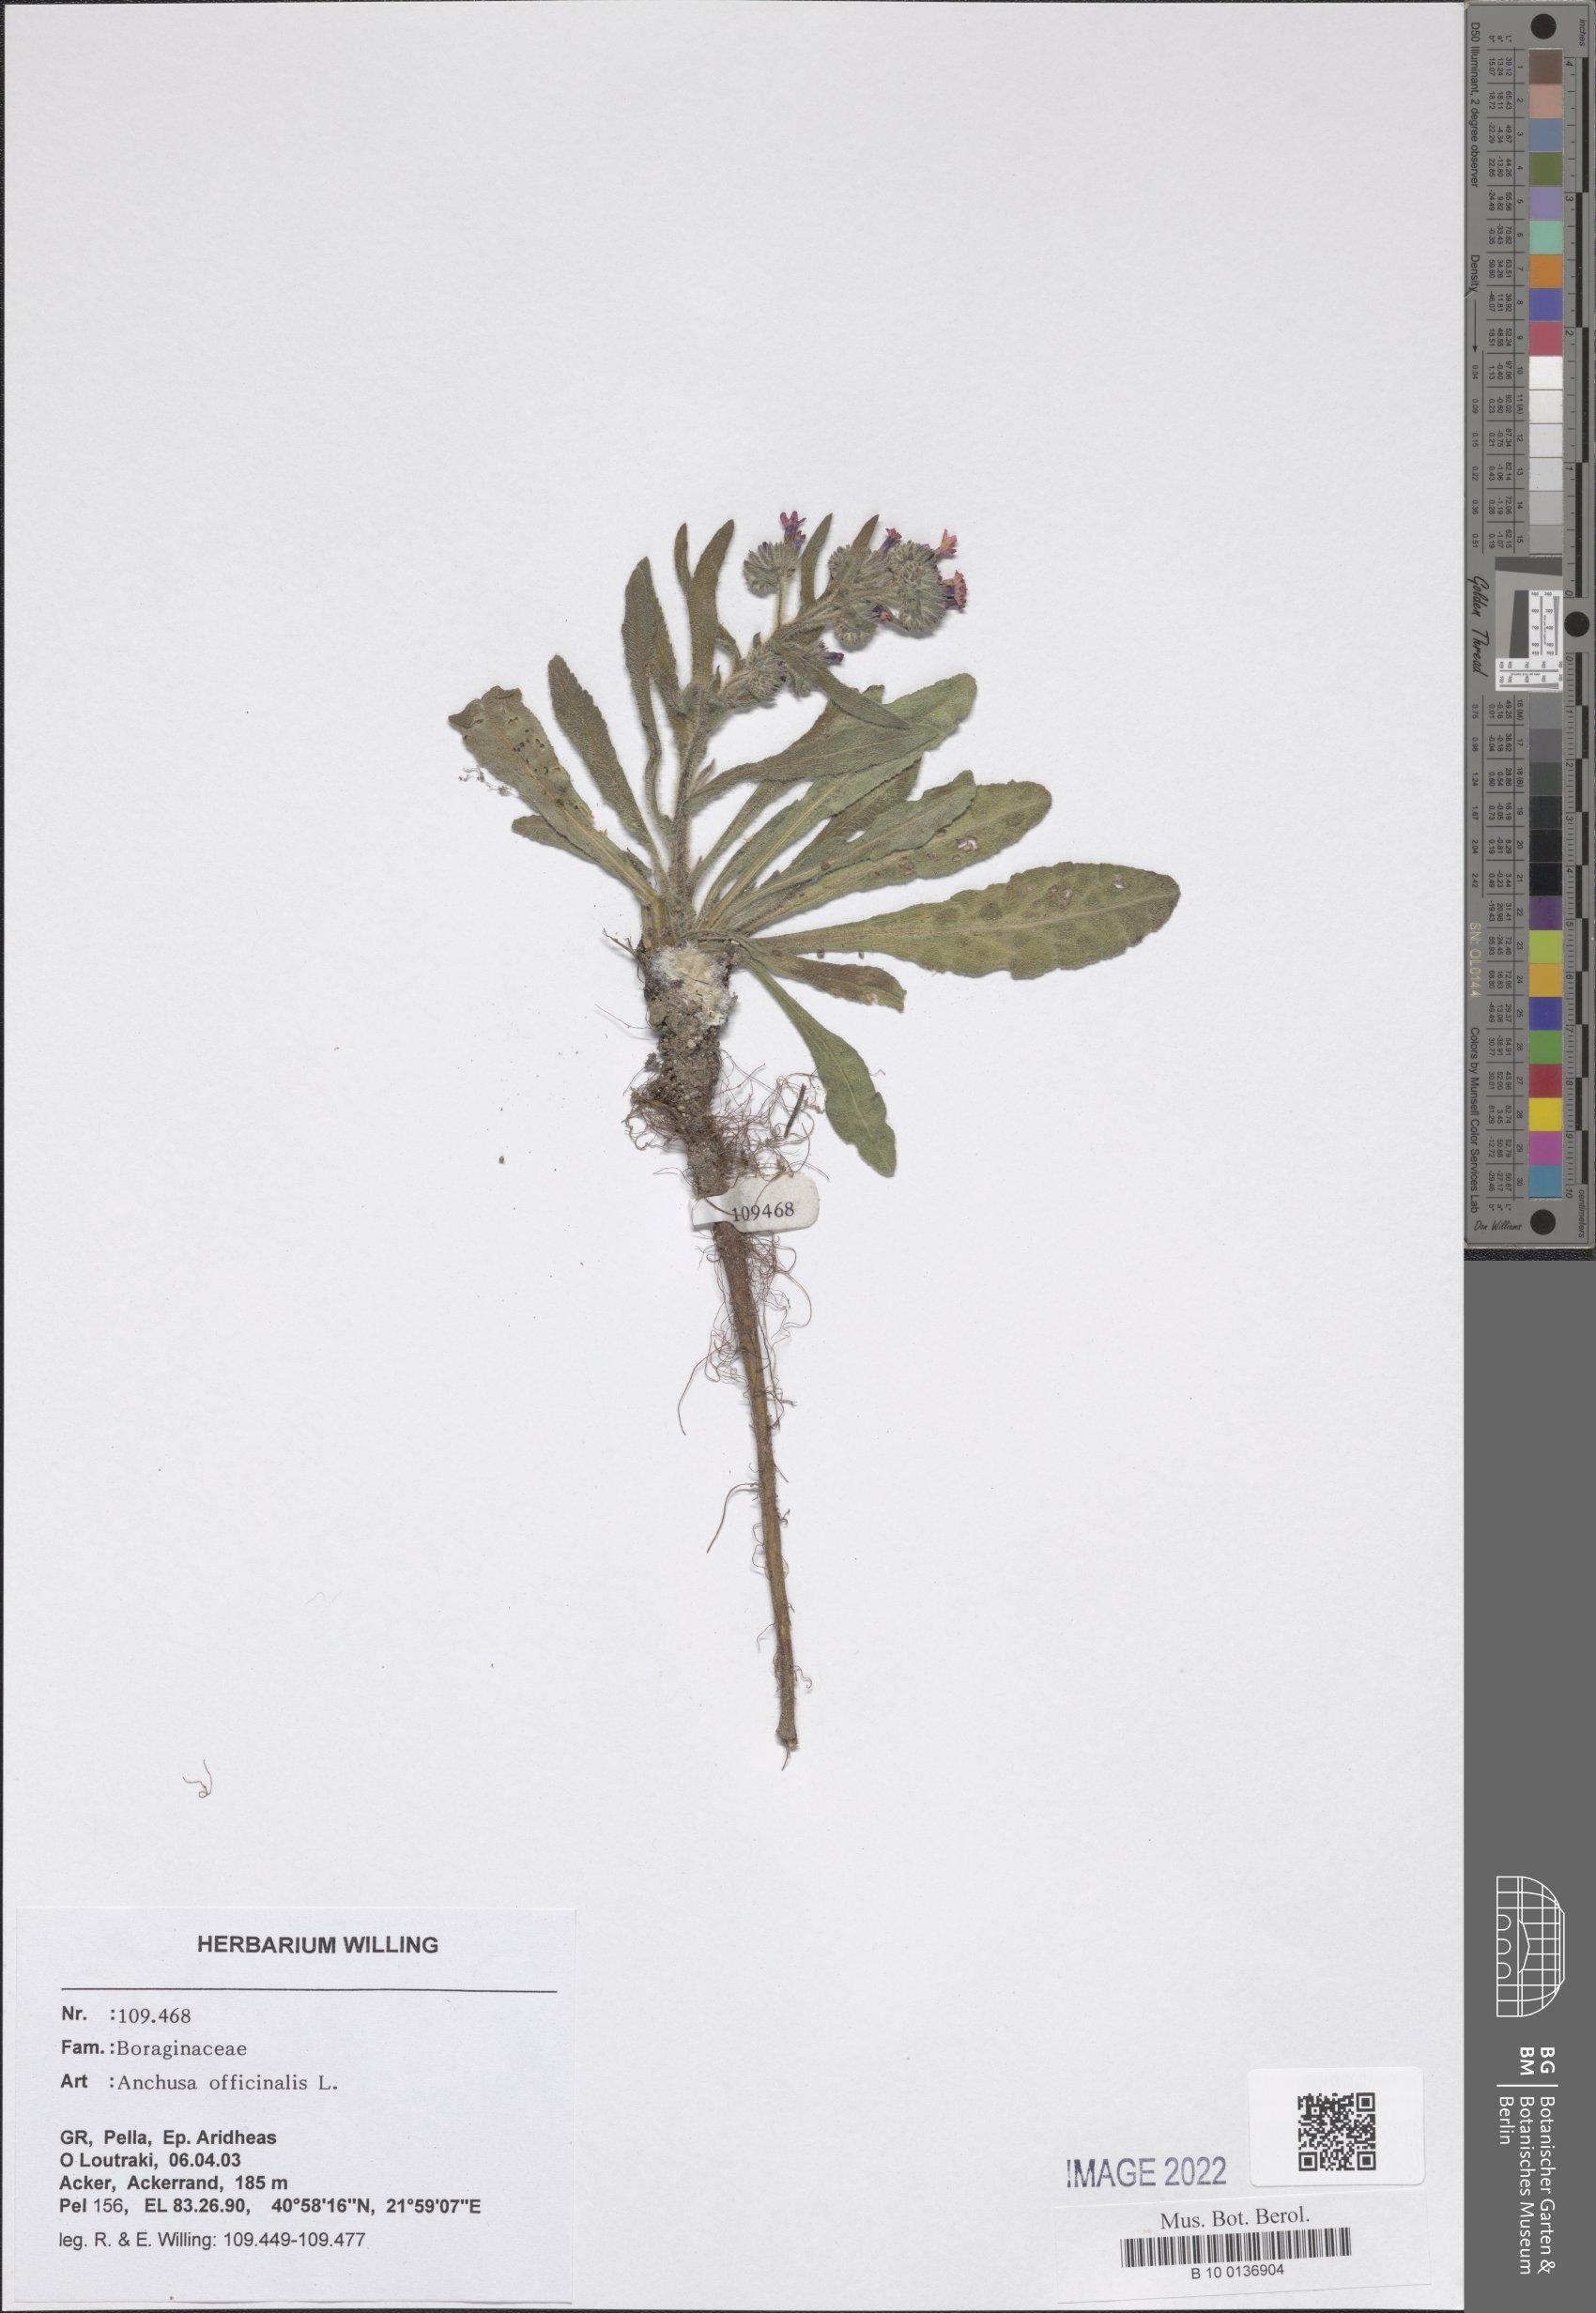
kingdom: Plantae
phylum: Tracheophyta
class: Magnoliopsida
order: Boraginales
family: Boraginaceae
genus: Anchusa
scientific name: Anchusa officinalis
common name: Alkanet
